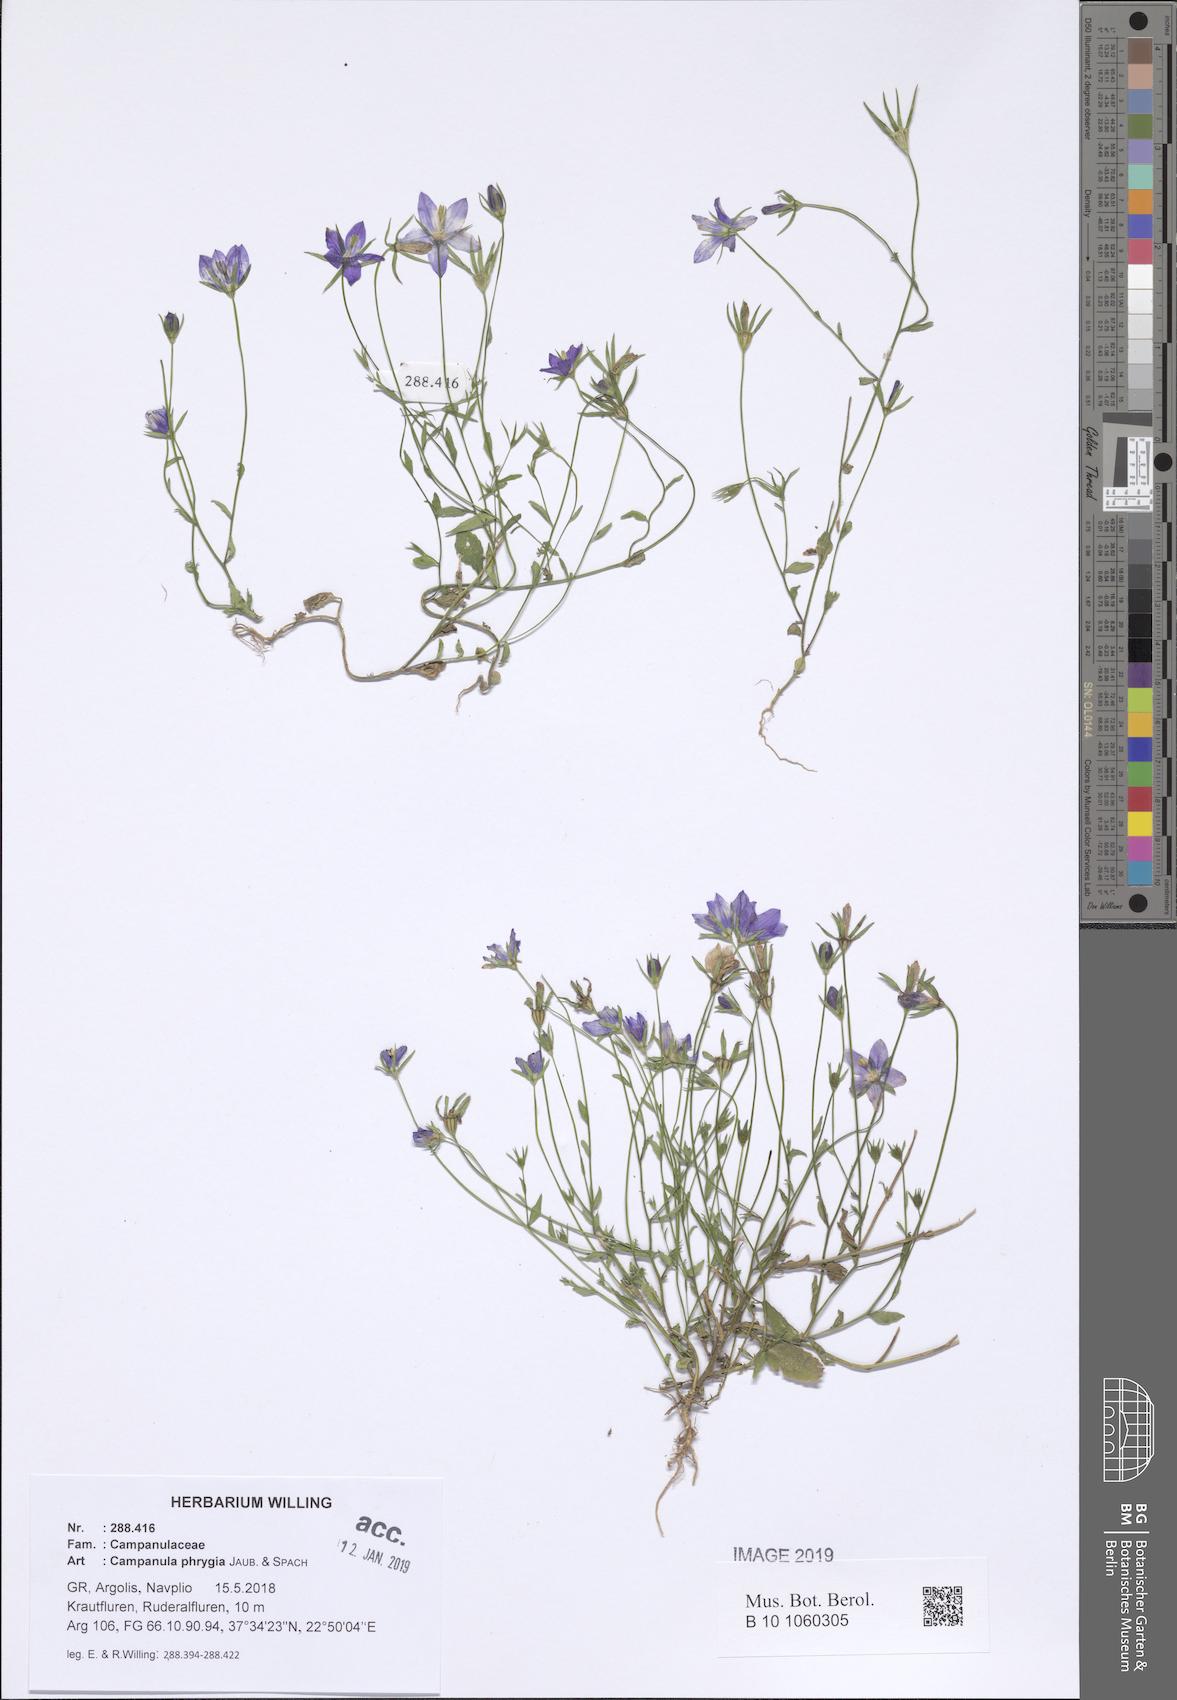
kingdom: Plantae
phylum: Tracheophyta
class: Magnoliopsida
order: Asterales
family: Campanulaceae
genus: Campanula
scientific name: Campanula phrygia
